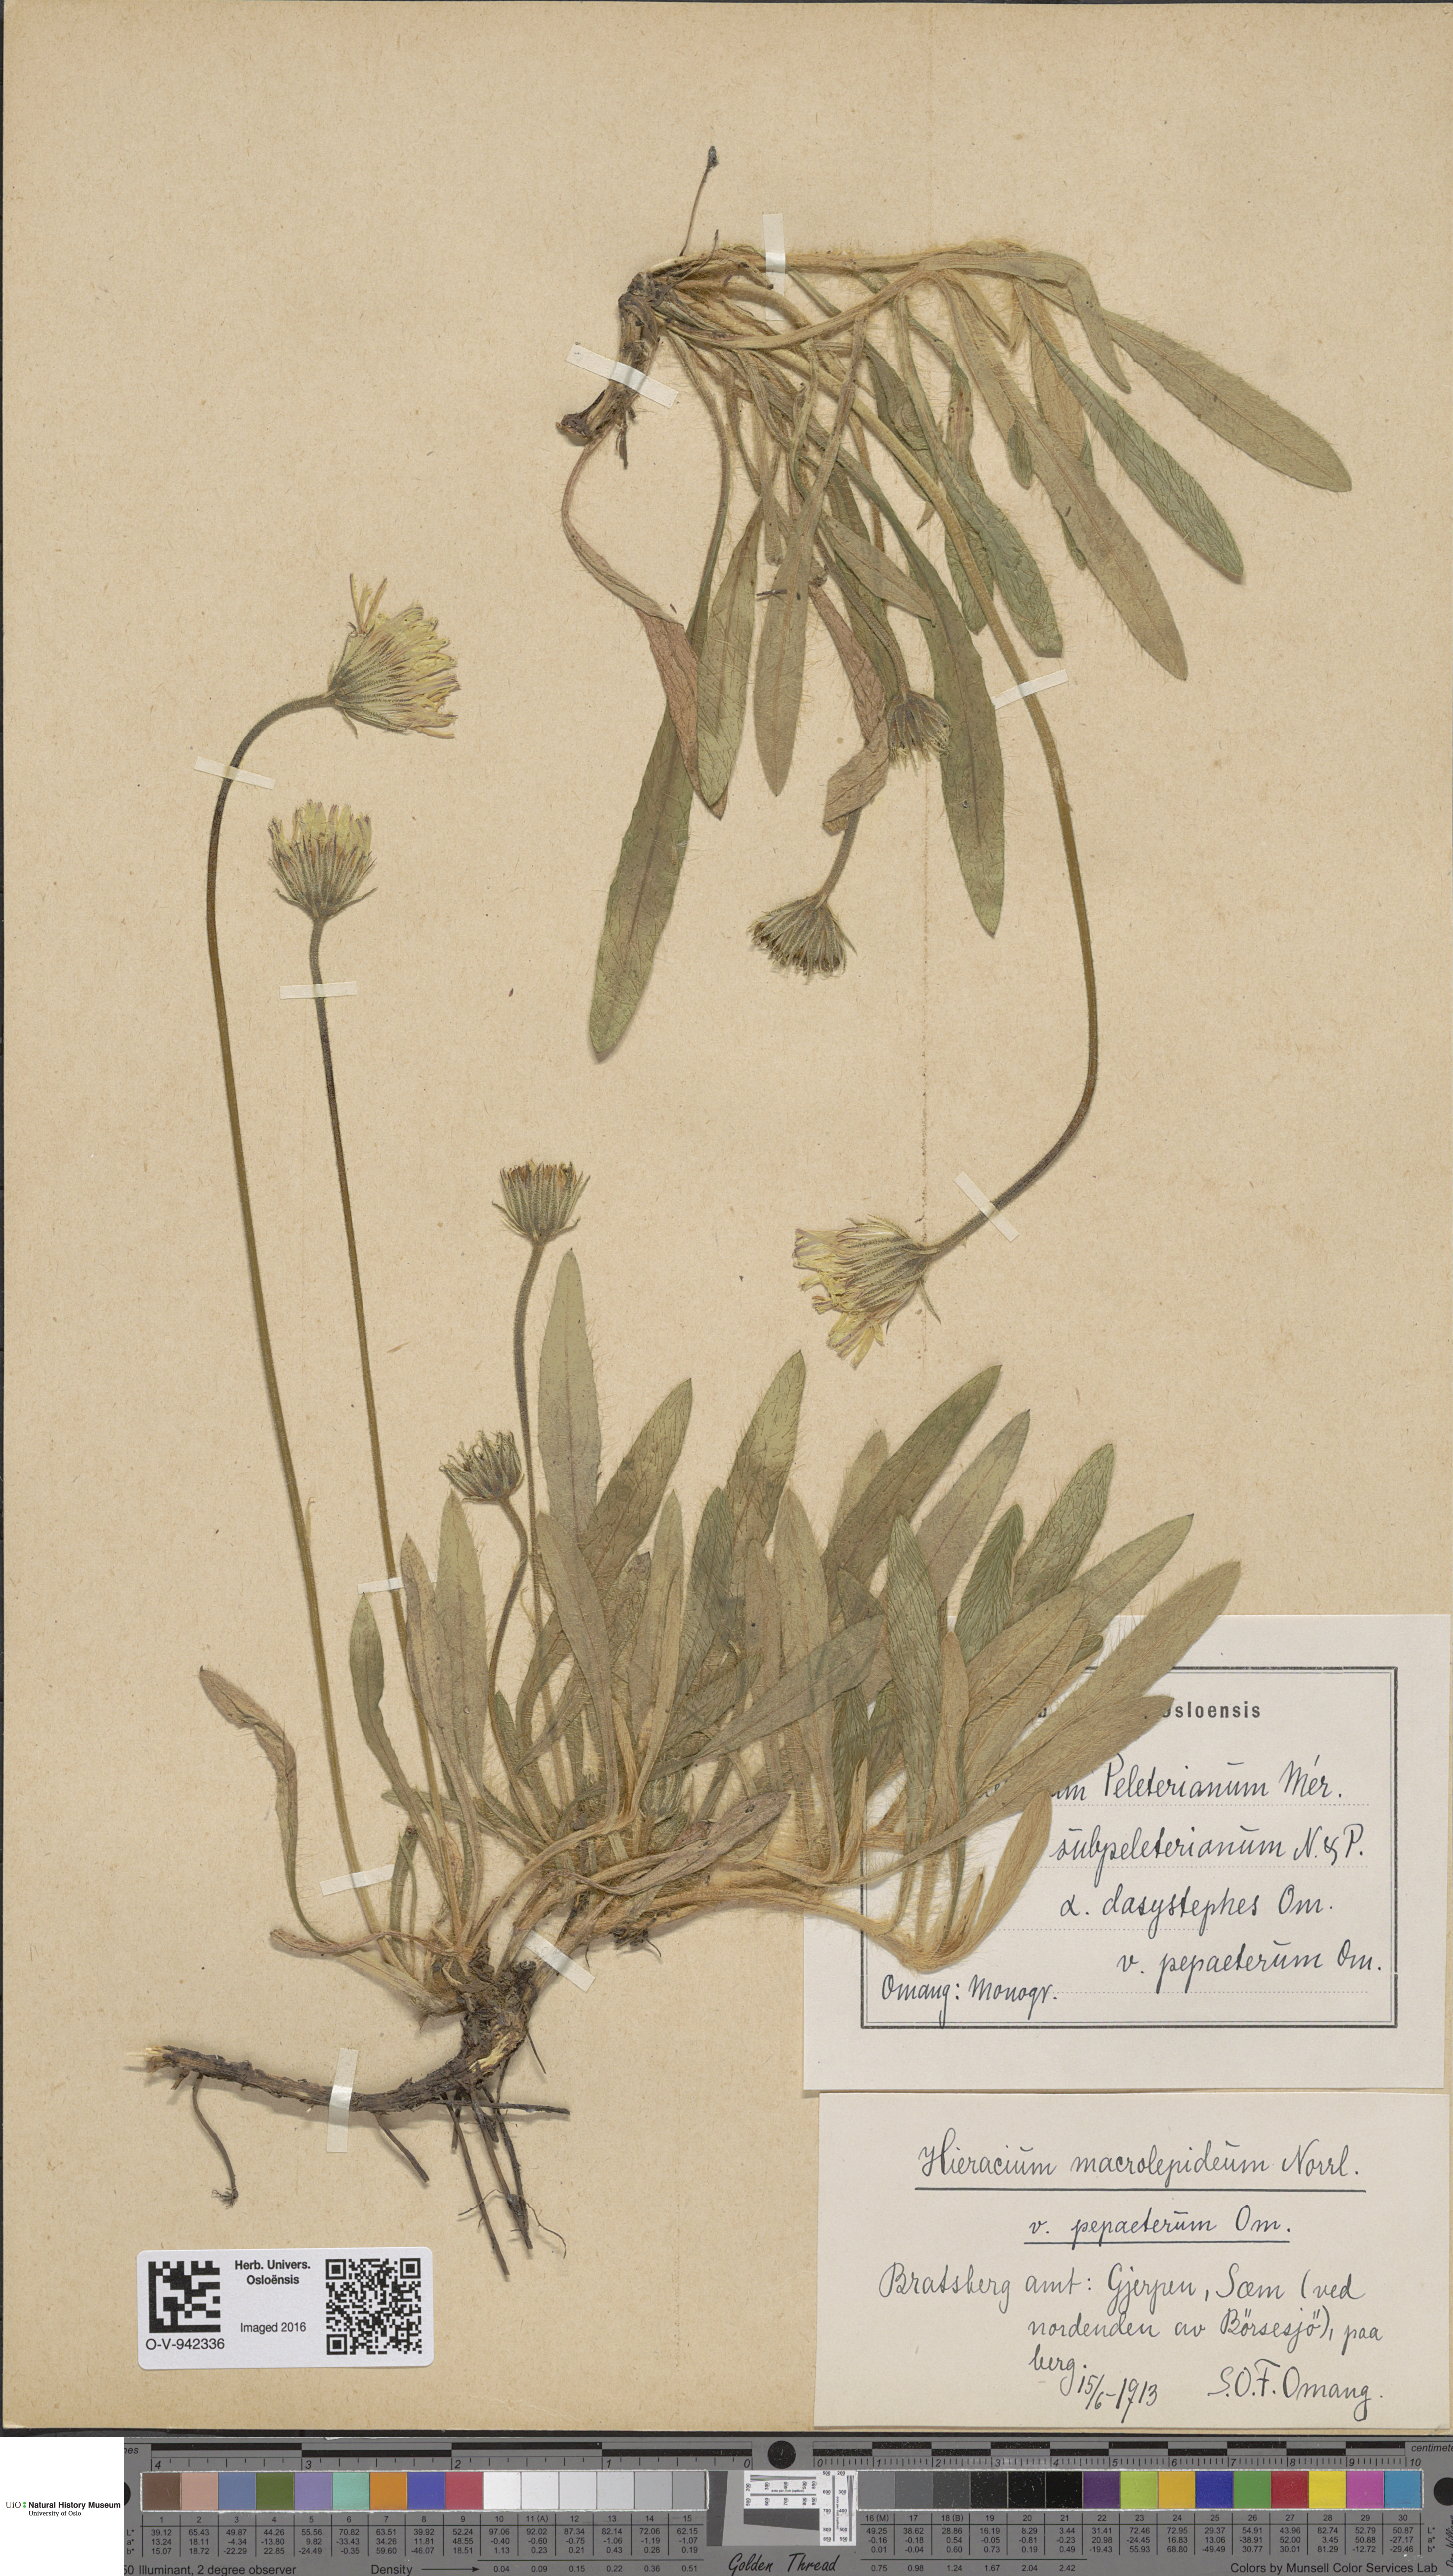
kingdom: Plantae
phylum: Tracheophyta
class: Magnoliopsida
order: Asterales
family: Asteraceae
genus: Pilosella
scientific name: Pilosella peleteriana
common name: Shaggy mouse-ear-hawkweed
